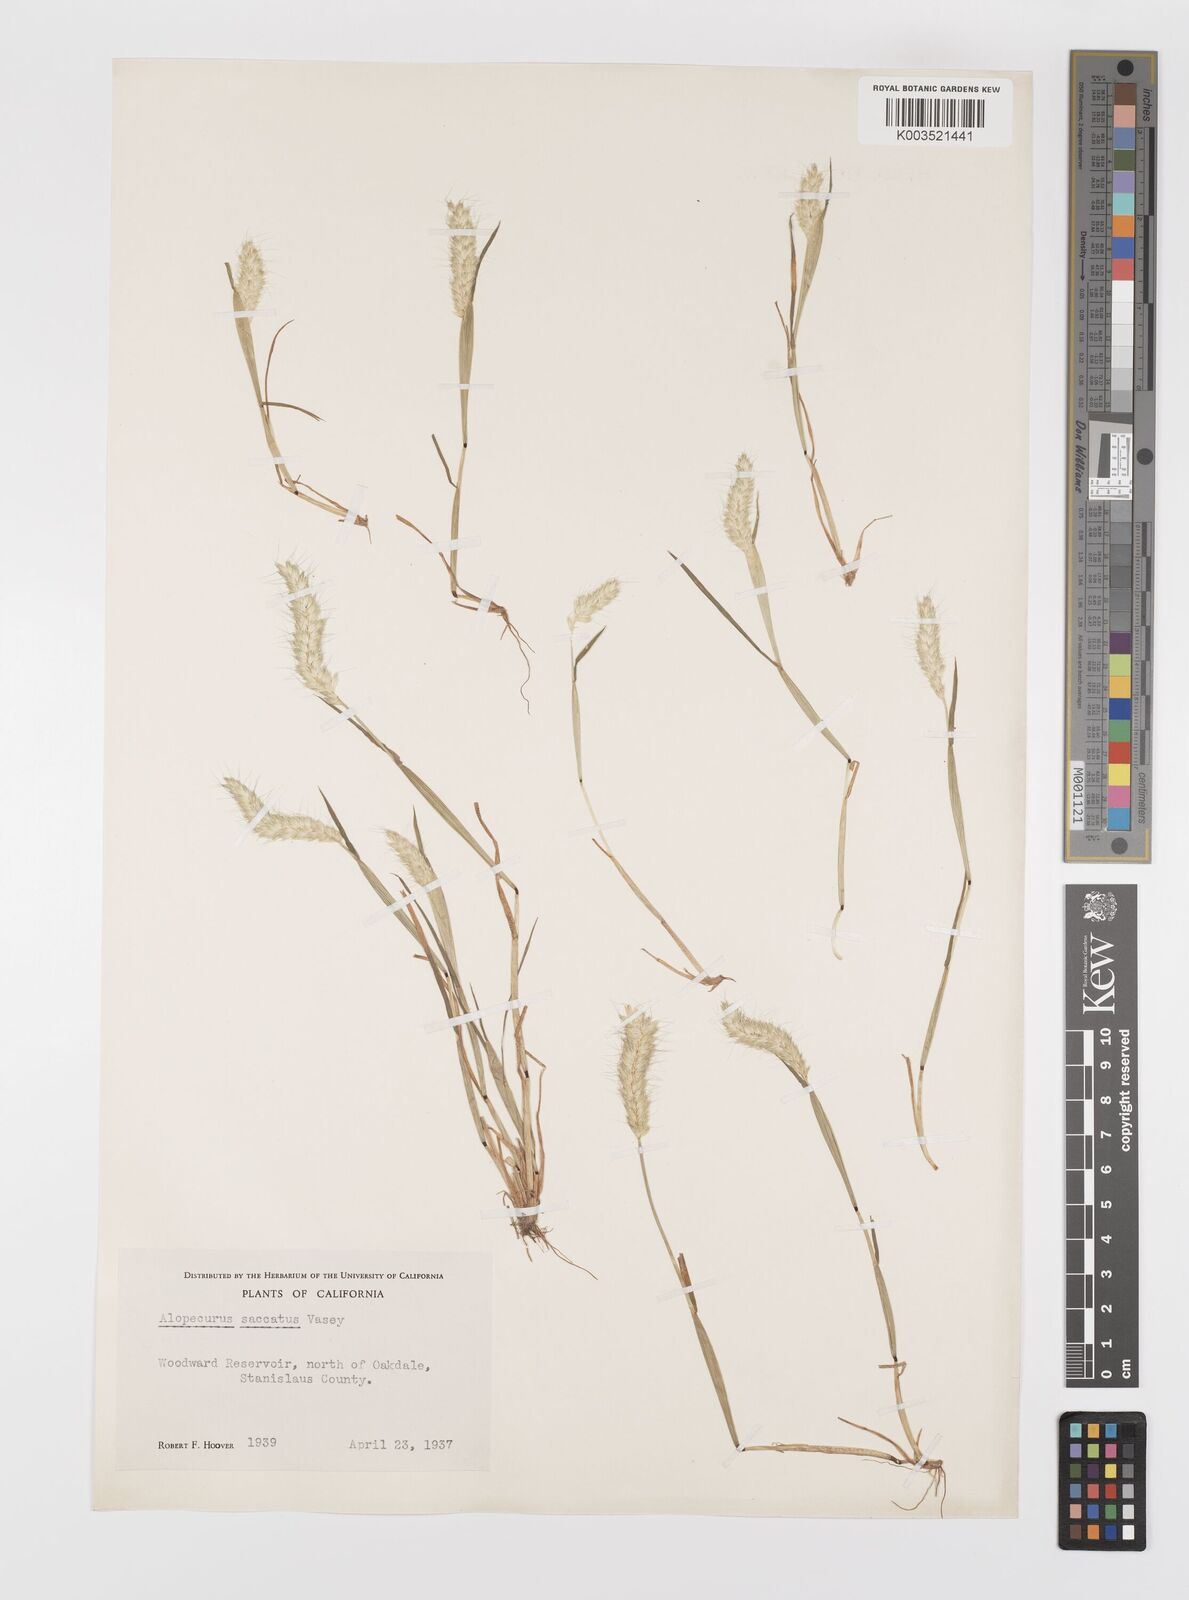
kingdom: Plantae
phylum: Tracheophyta
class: Liliopsida
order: Poales
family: Poaceae
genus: Alopecurus
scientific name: Alopecurus saccatus
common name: Pacific foxtail
